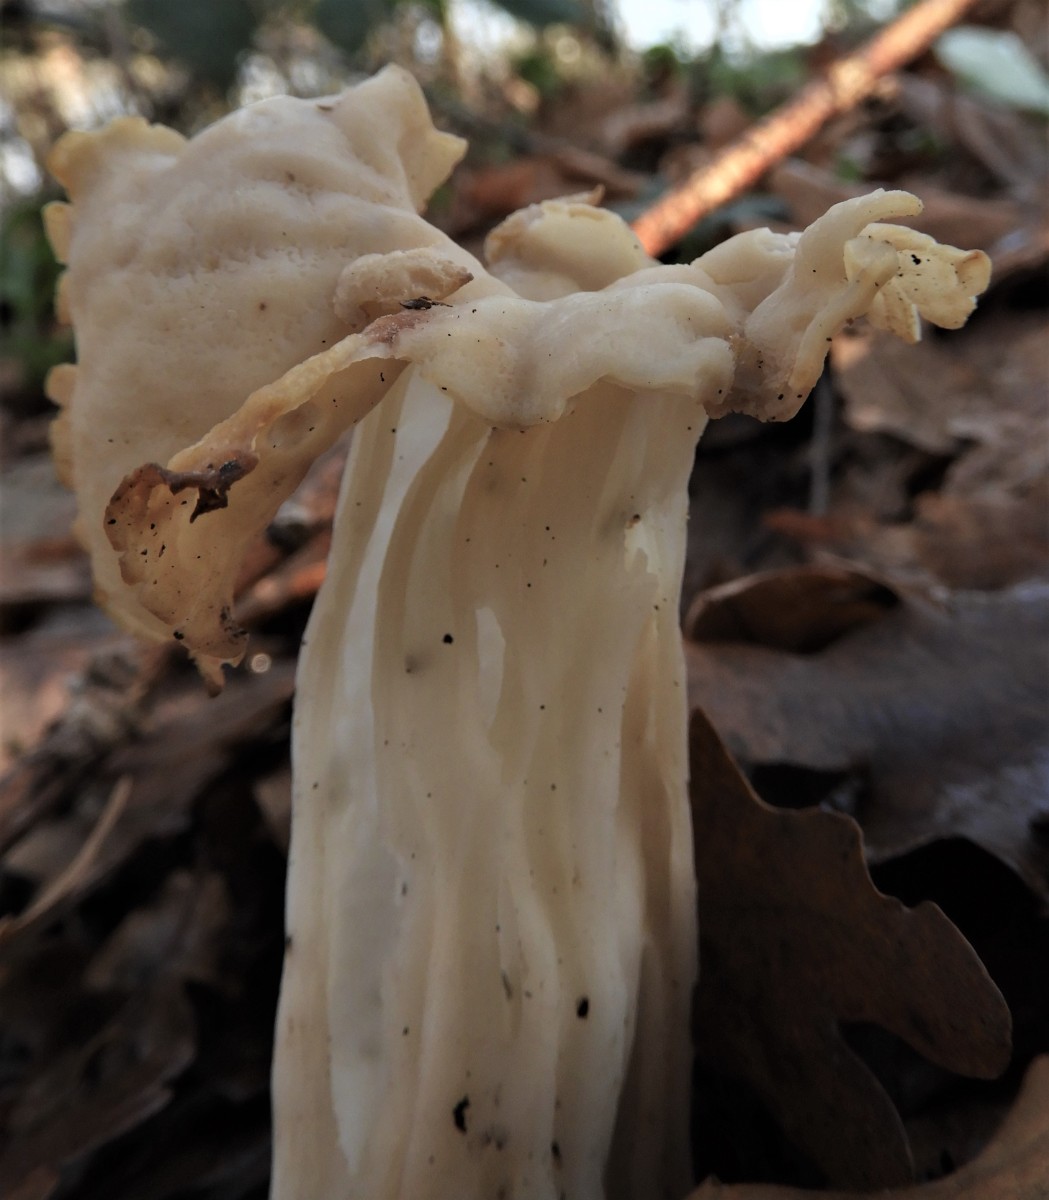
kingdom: Fungi
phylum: Ascomycota
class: Pezizomycetes
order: Pezizales
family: Helvellaceae
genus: Helvella
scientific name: Helvella crispa
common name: kruset foldhat
